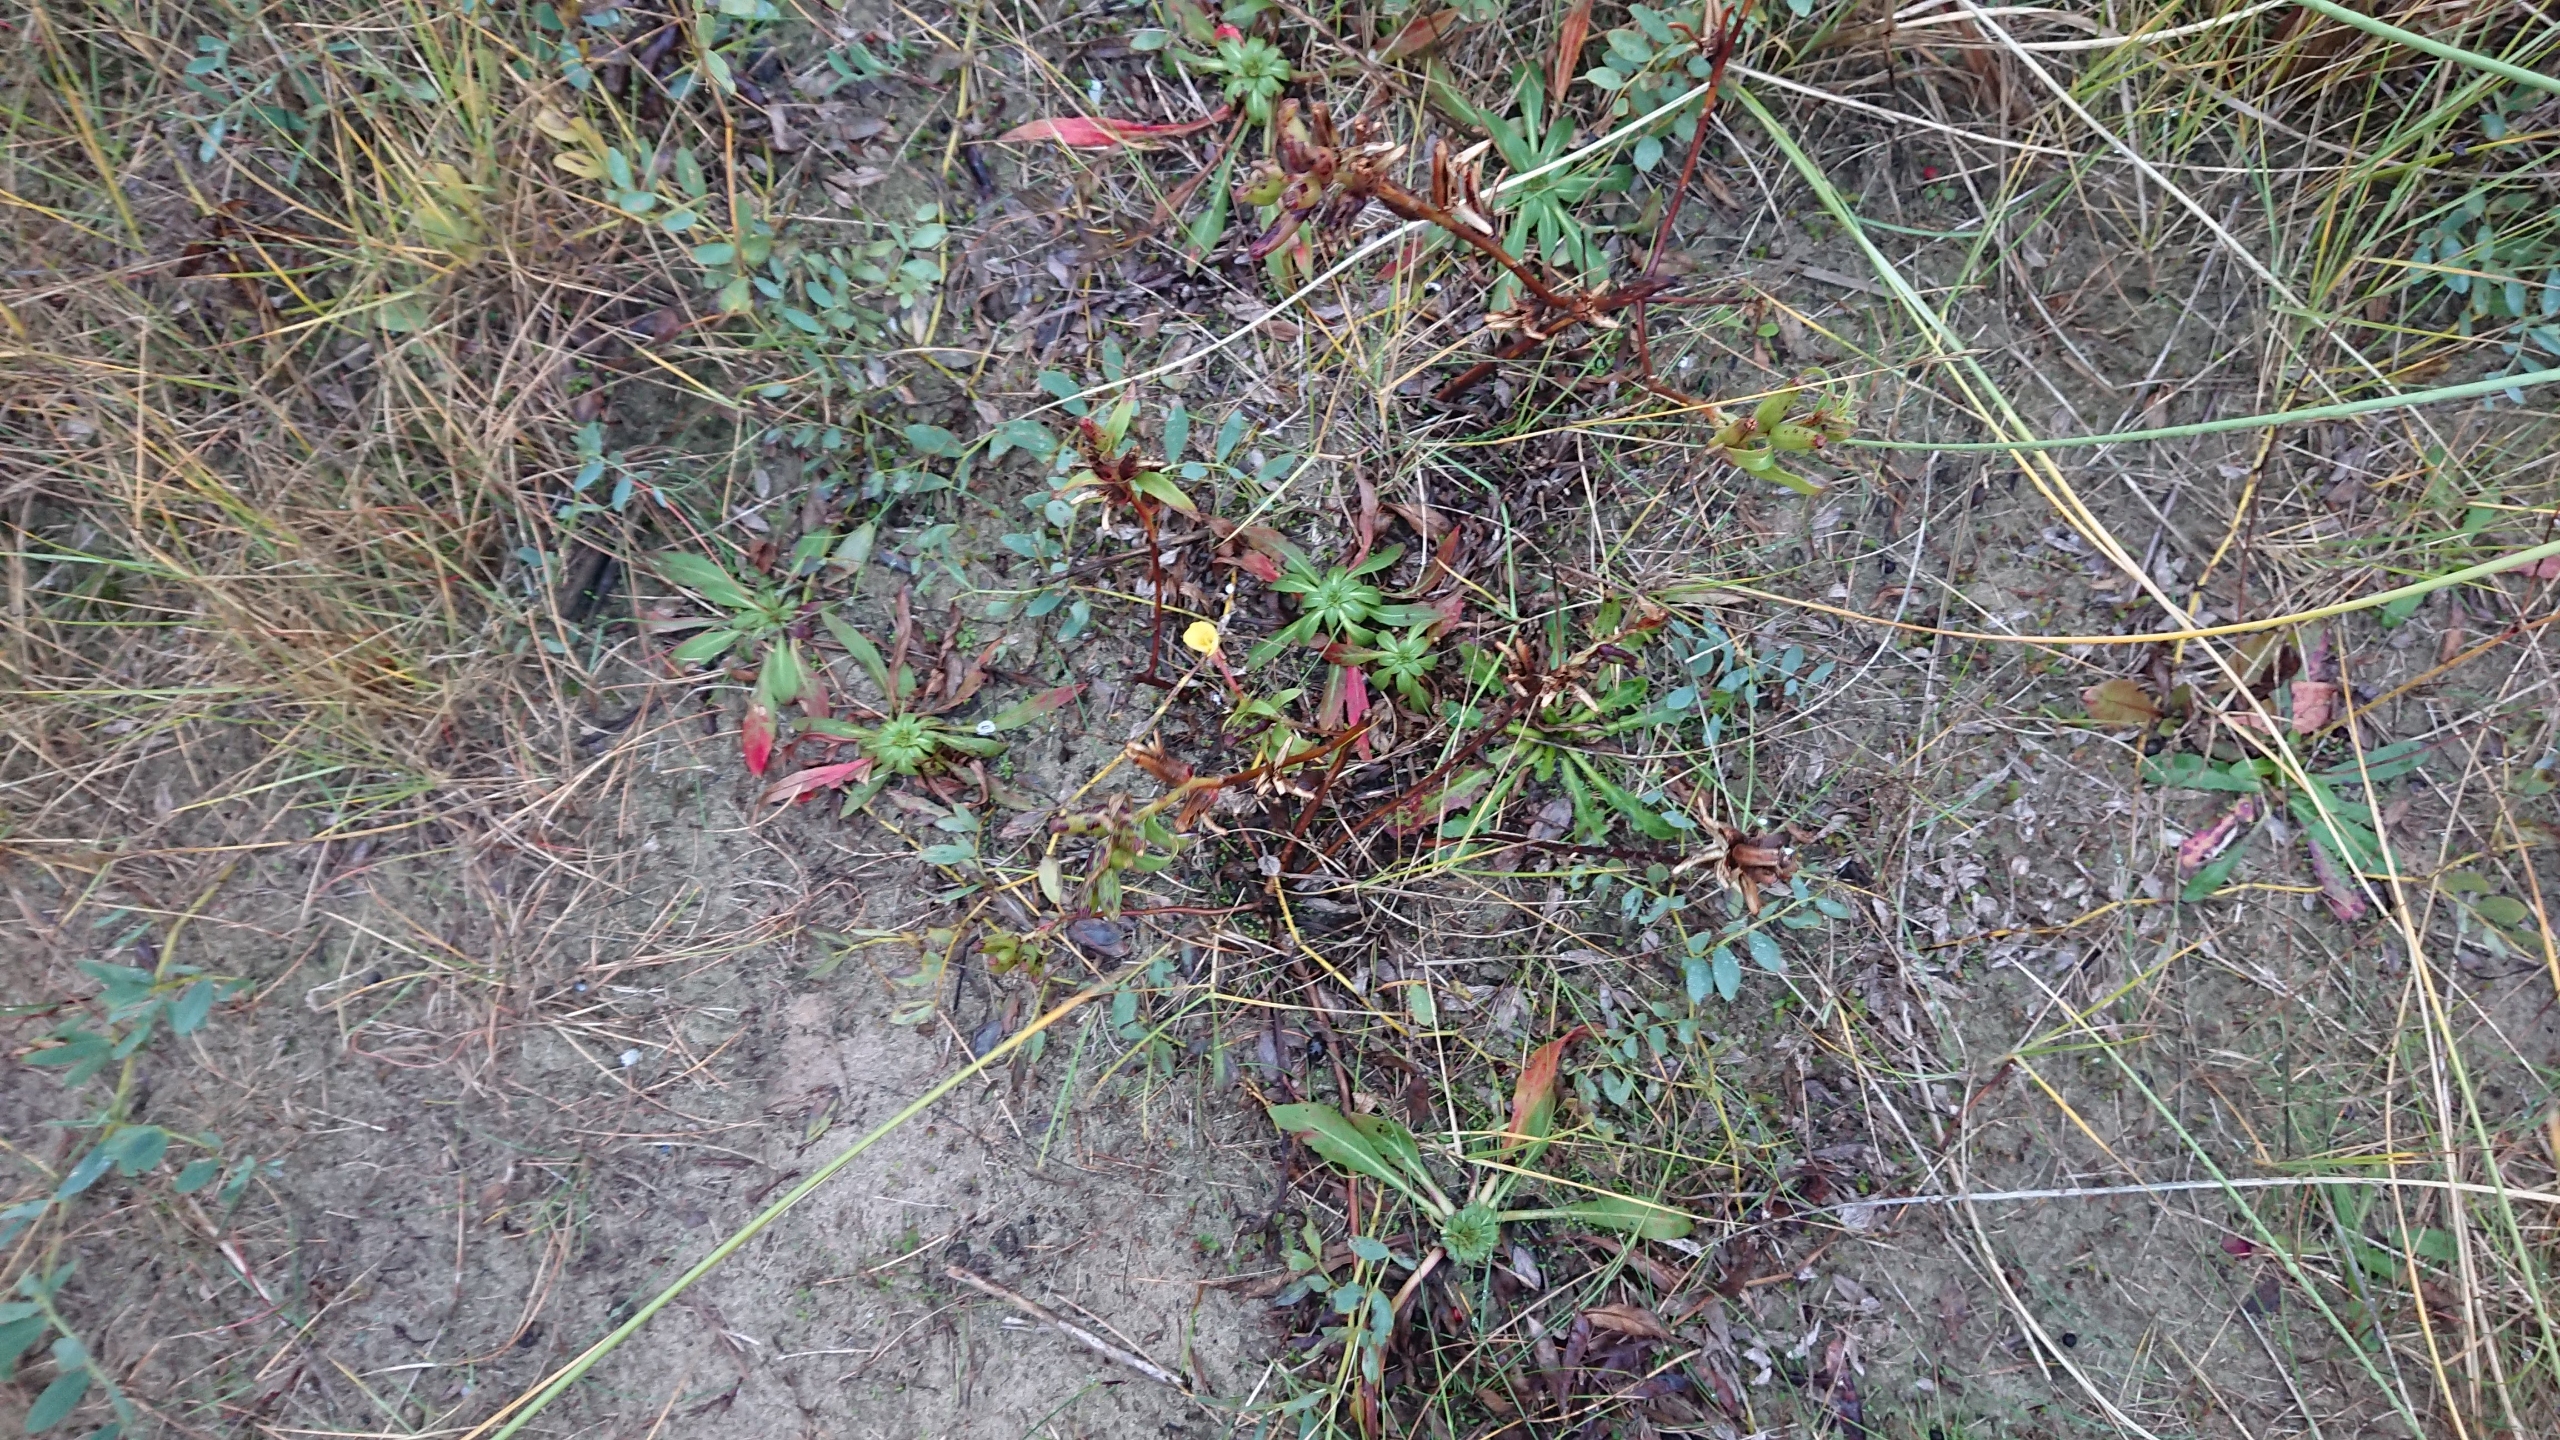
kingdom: Plantae
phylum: Tracheophyta
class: Magnoliopsida
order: Myrtales
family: Onagraceae
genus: Oenothera
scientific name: Oenothera ammophila
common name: Klit-natlys
